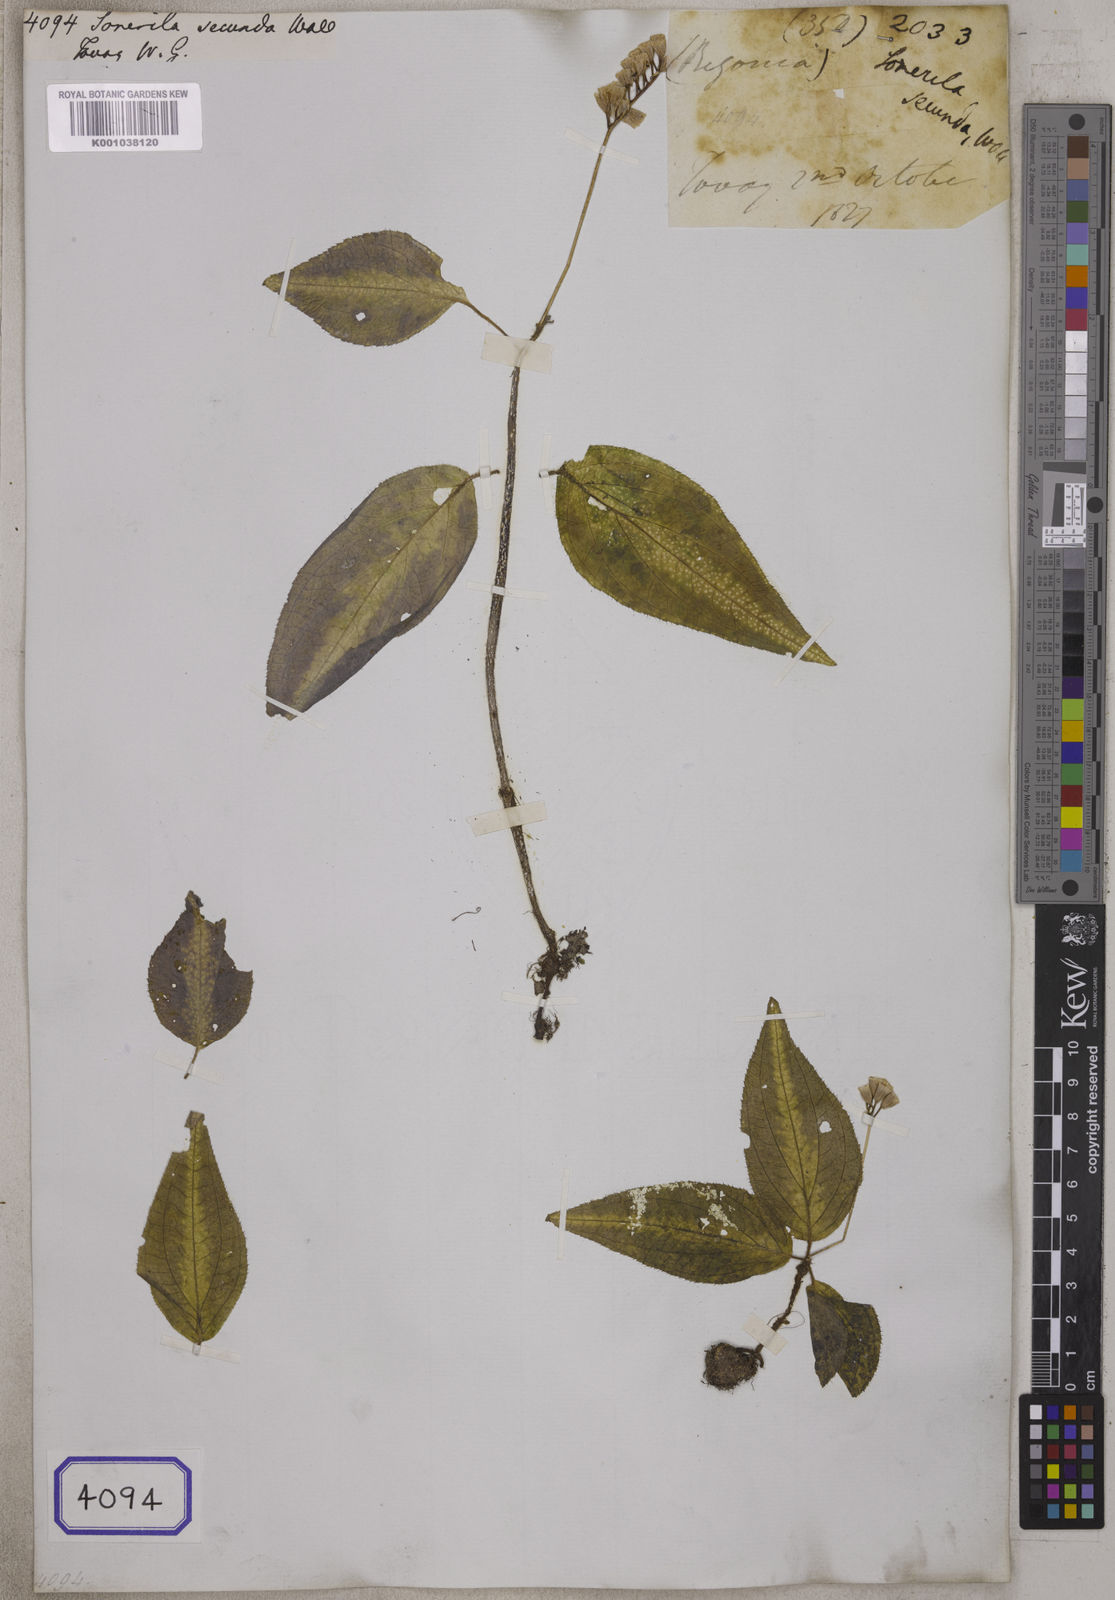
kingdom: Plantae
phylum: Tracheophyta
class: Magnoliopsida
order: Myrtales
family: Melastomataceae
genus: Sonerila
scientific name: Sonerila
